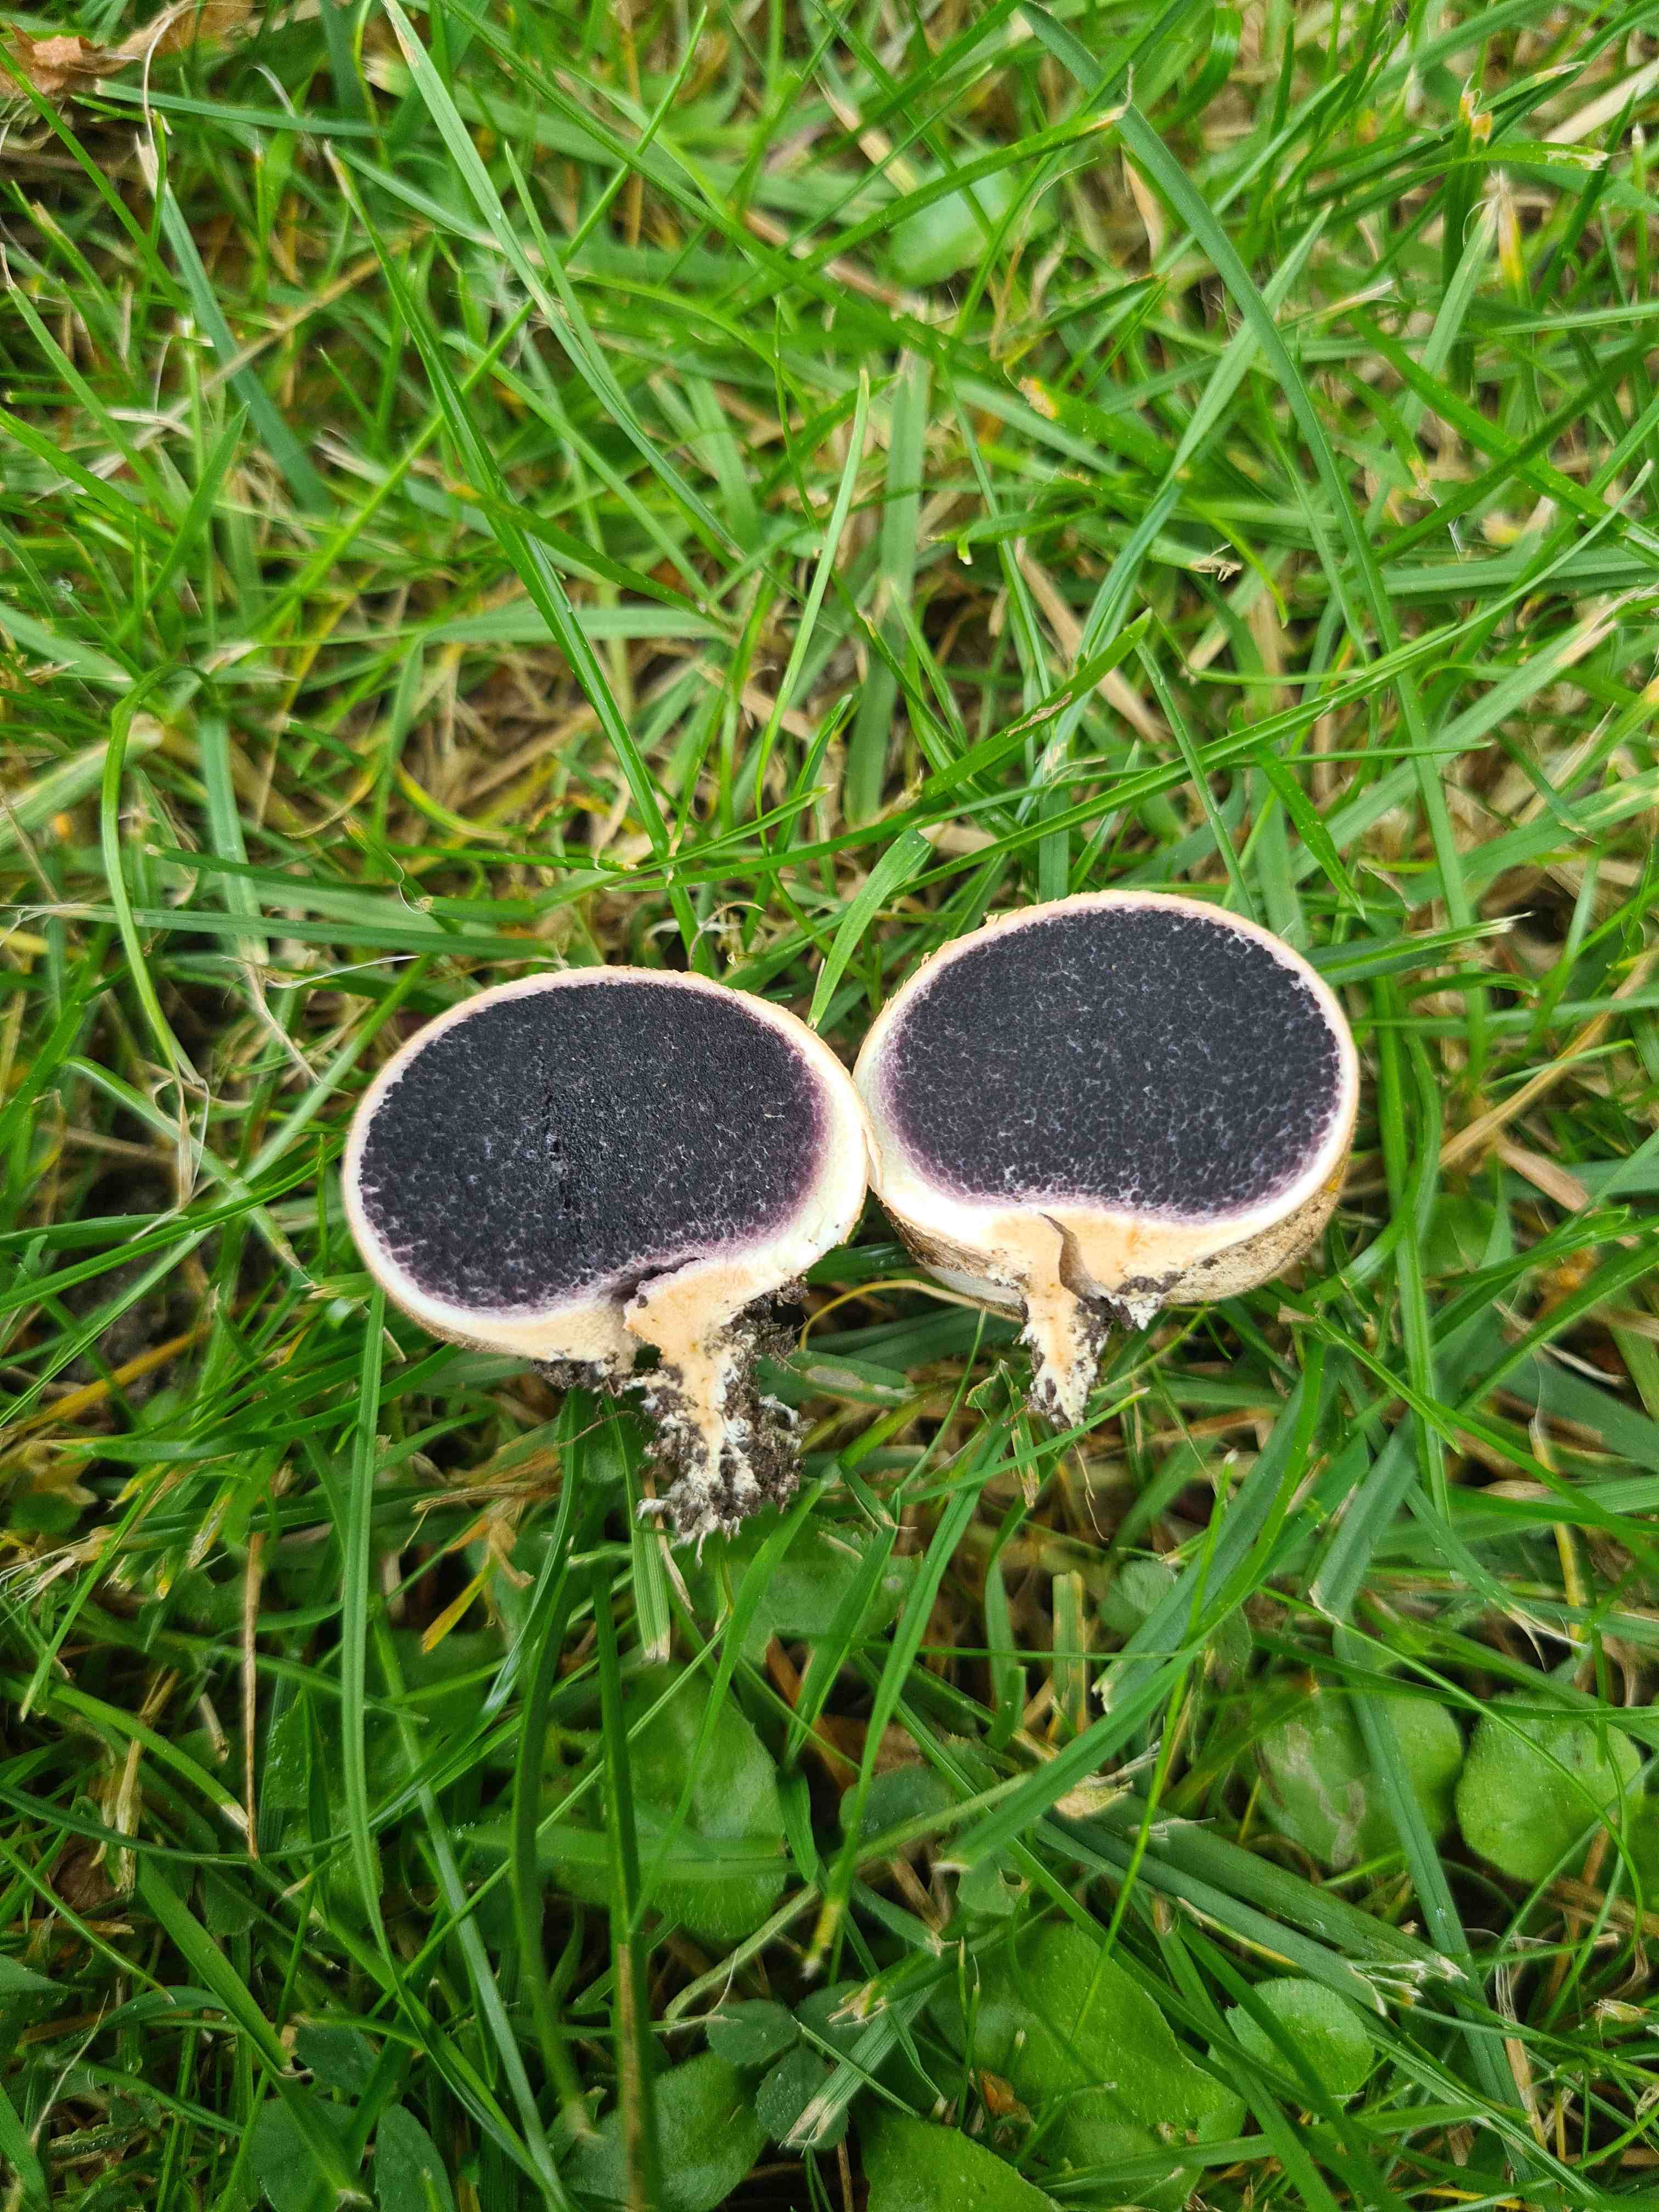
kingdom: Fungi
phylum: Basidiomycota
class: Agaricomycetes
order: Boletales
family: Sclerodermataceae
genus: Scleroderma
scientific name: Scleroderma
